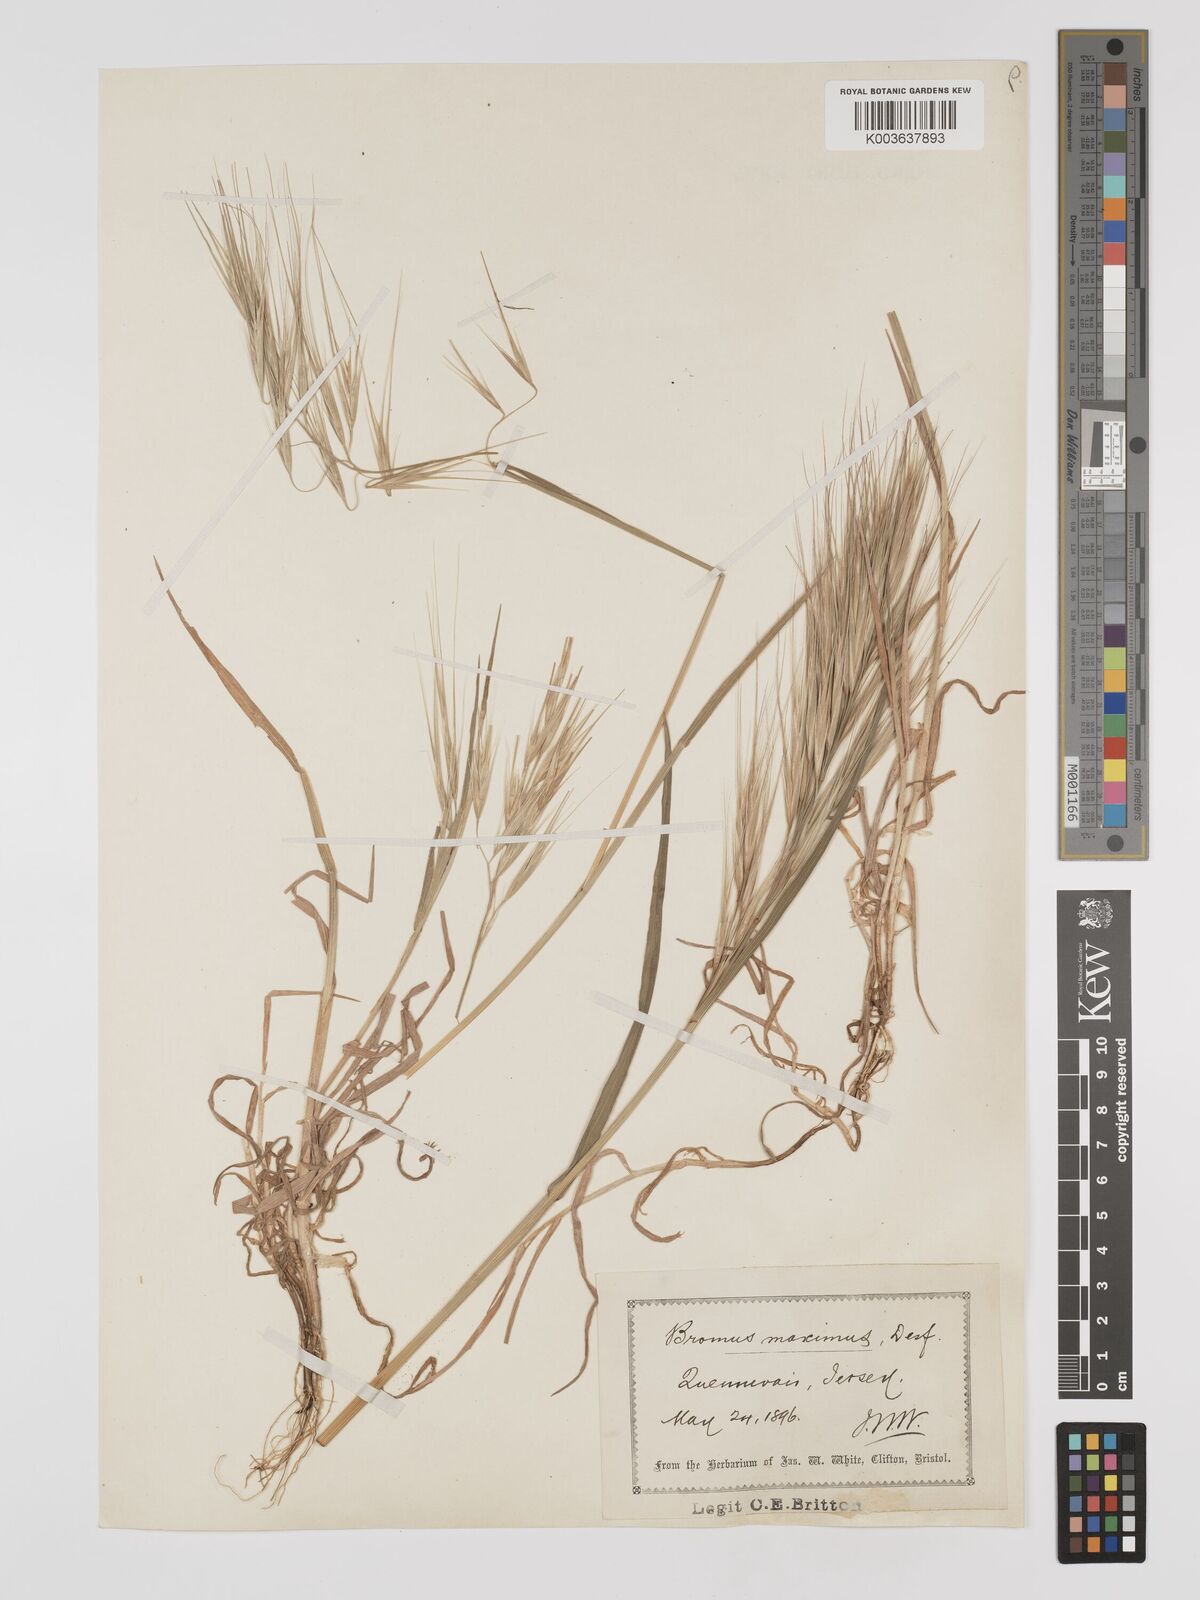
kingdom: Plantae
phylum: Tracheophyta
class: Liliopsida
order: Poales
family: Poaceae
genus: Bromus
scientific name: Bromus
